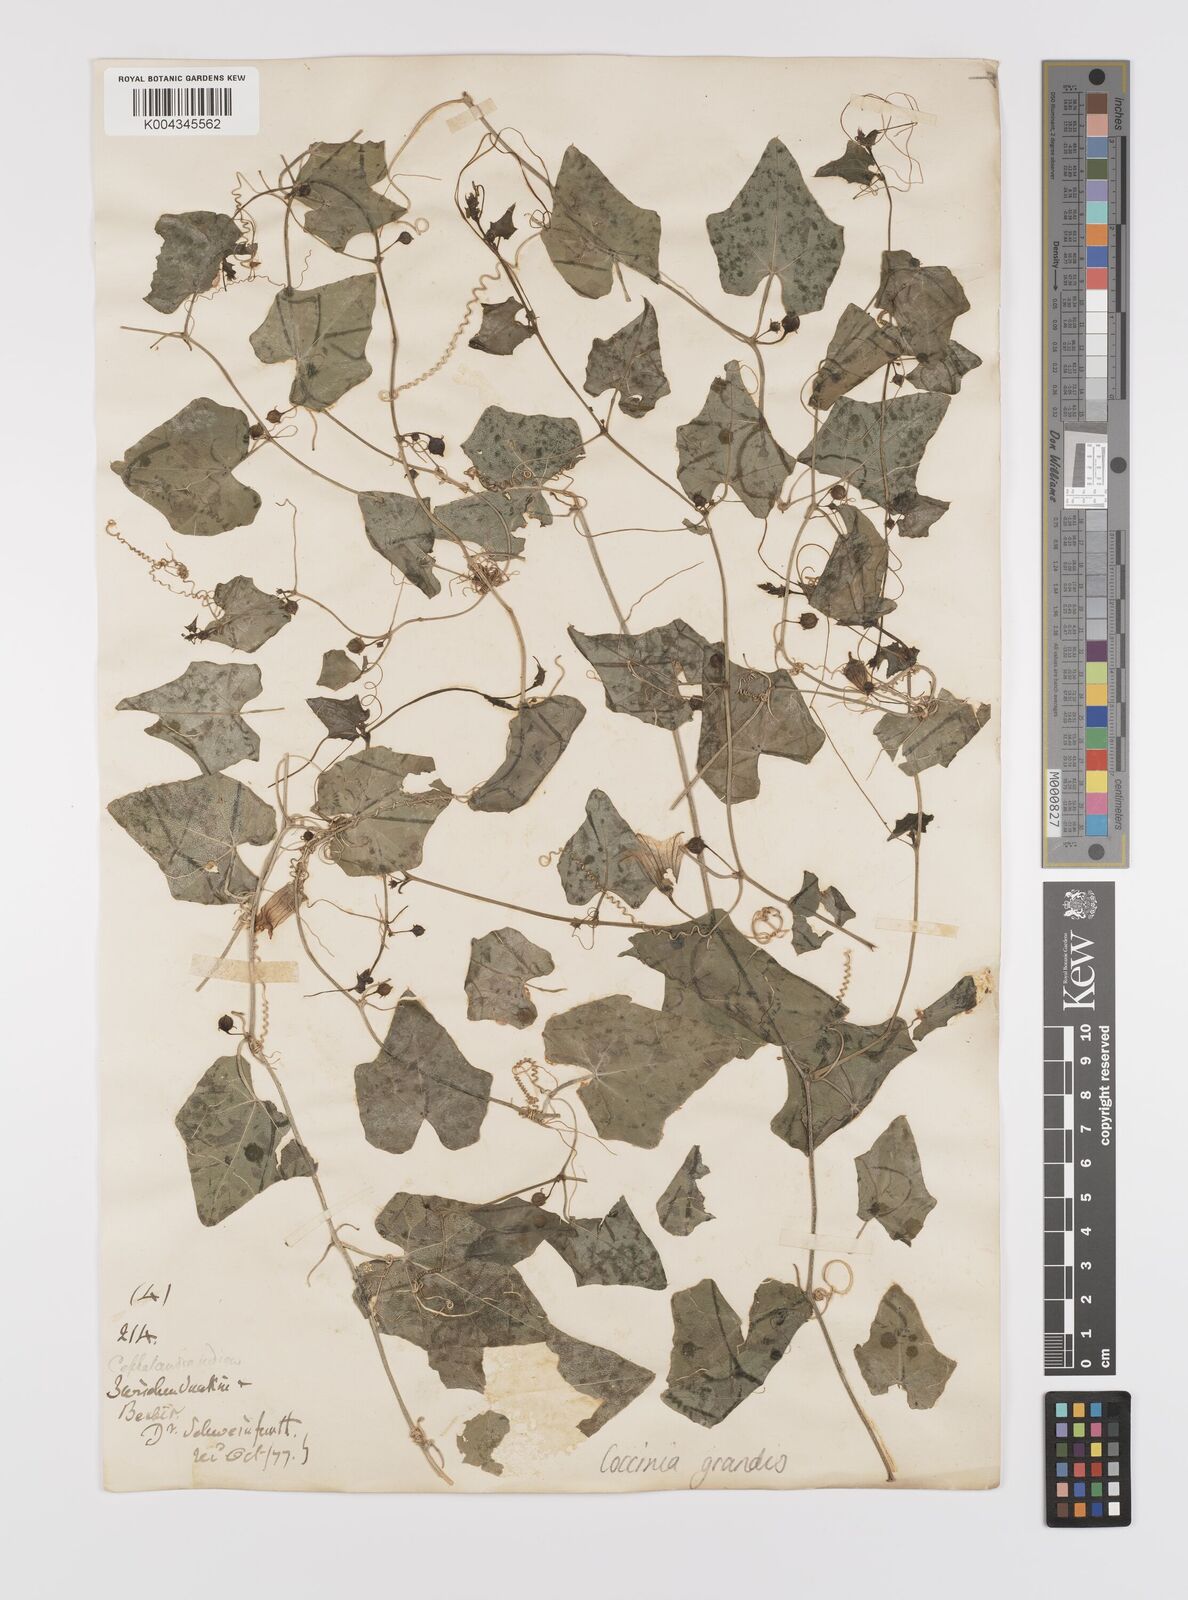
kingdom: Plantae
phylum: Tracheophyta
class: Magnoliopsida
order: Cucurbitales
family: Cucurbitaceae
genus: Coccinia
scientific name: Coccinia grandis
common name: Ivy gourd
